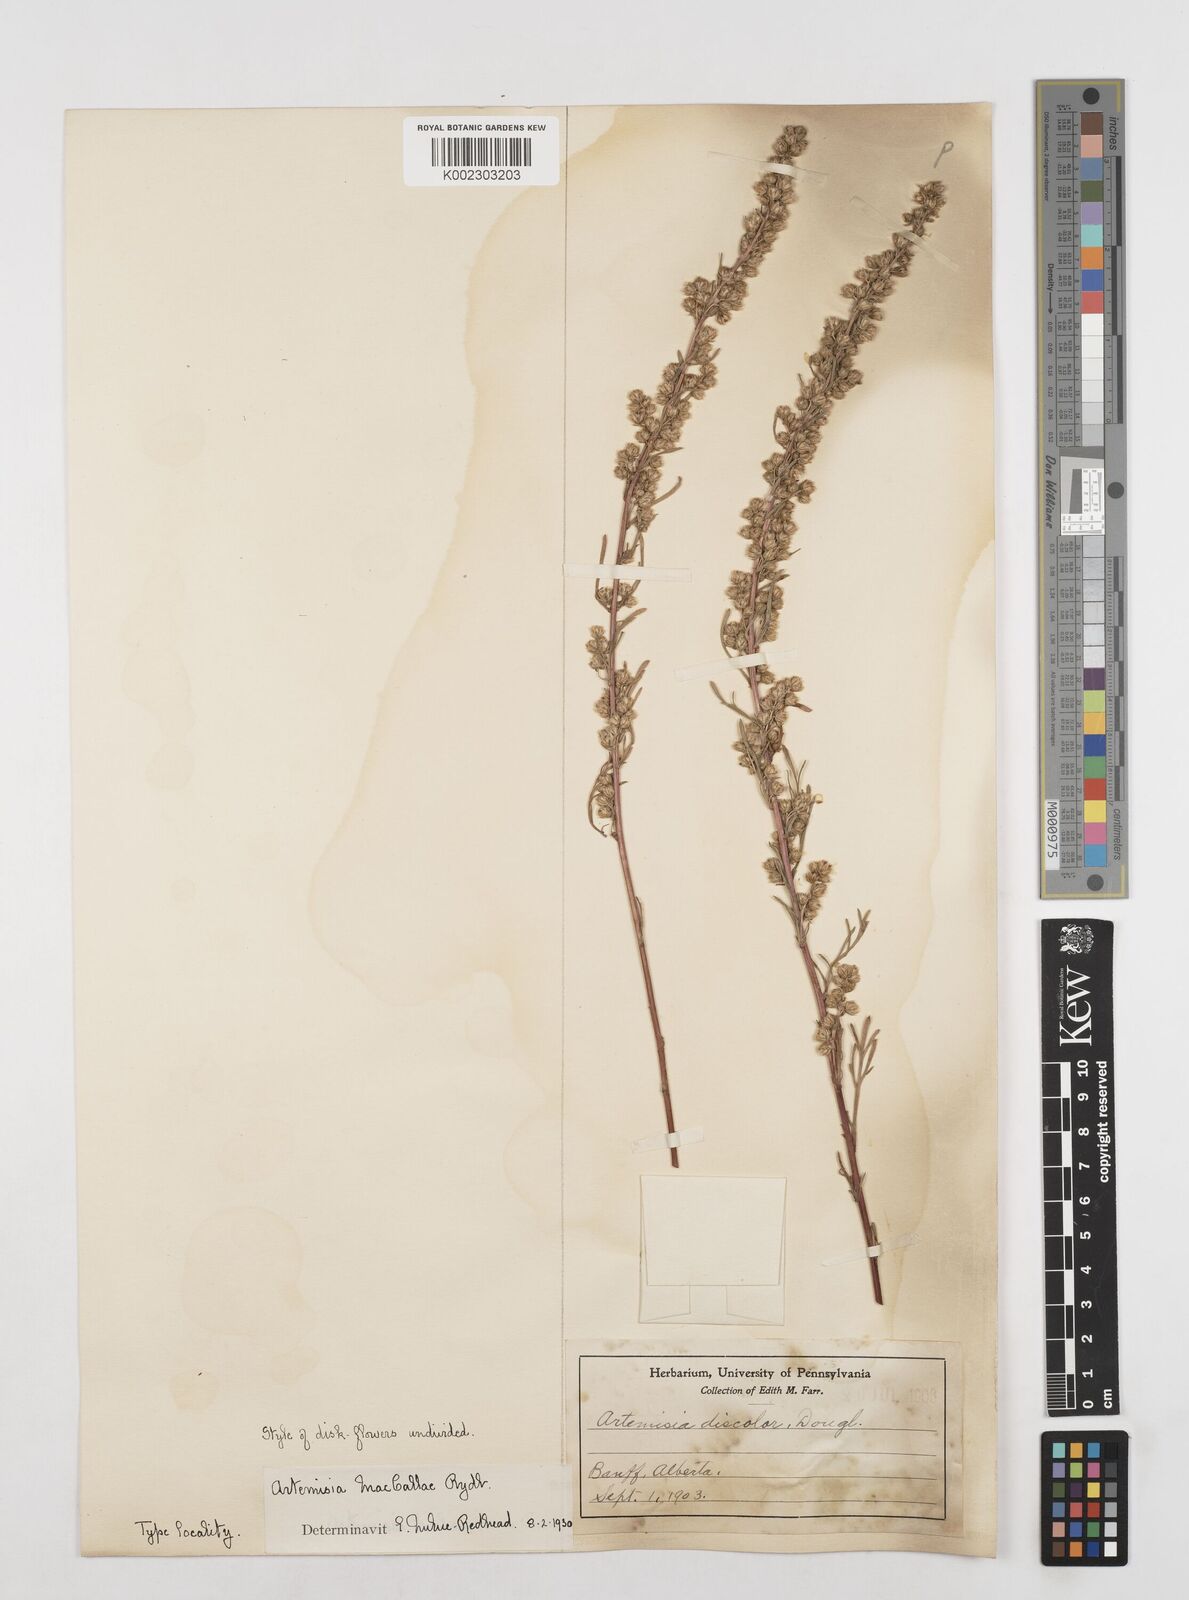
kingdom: Plantae
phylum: Tracheophyta
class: Magnoliopsida
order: Asterales
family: Asteraceae
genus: Artemisia
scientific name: Artemisia campestris
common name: Field wormwood
